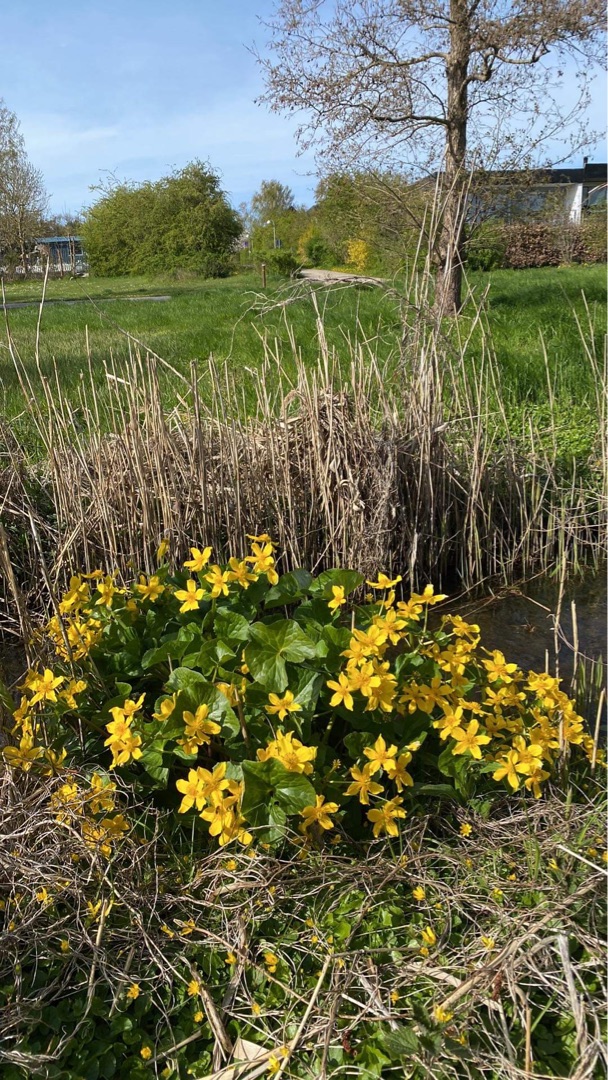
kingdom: Plantae
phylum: Tracheophyta
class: Magnoliopsida
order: Ranunculales
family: Ranunculaceae
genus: Caltha
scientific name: Caltha palustris
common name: Eng-kabbeleje
